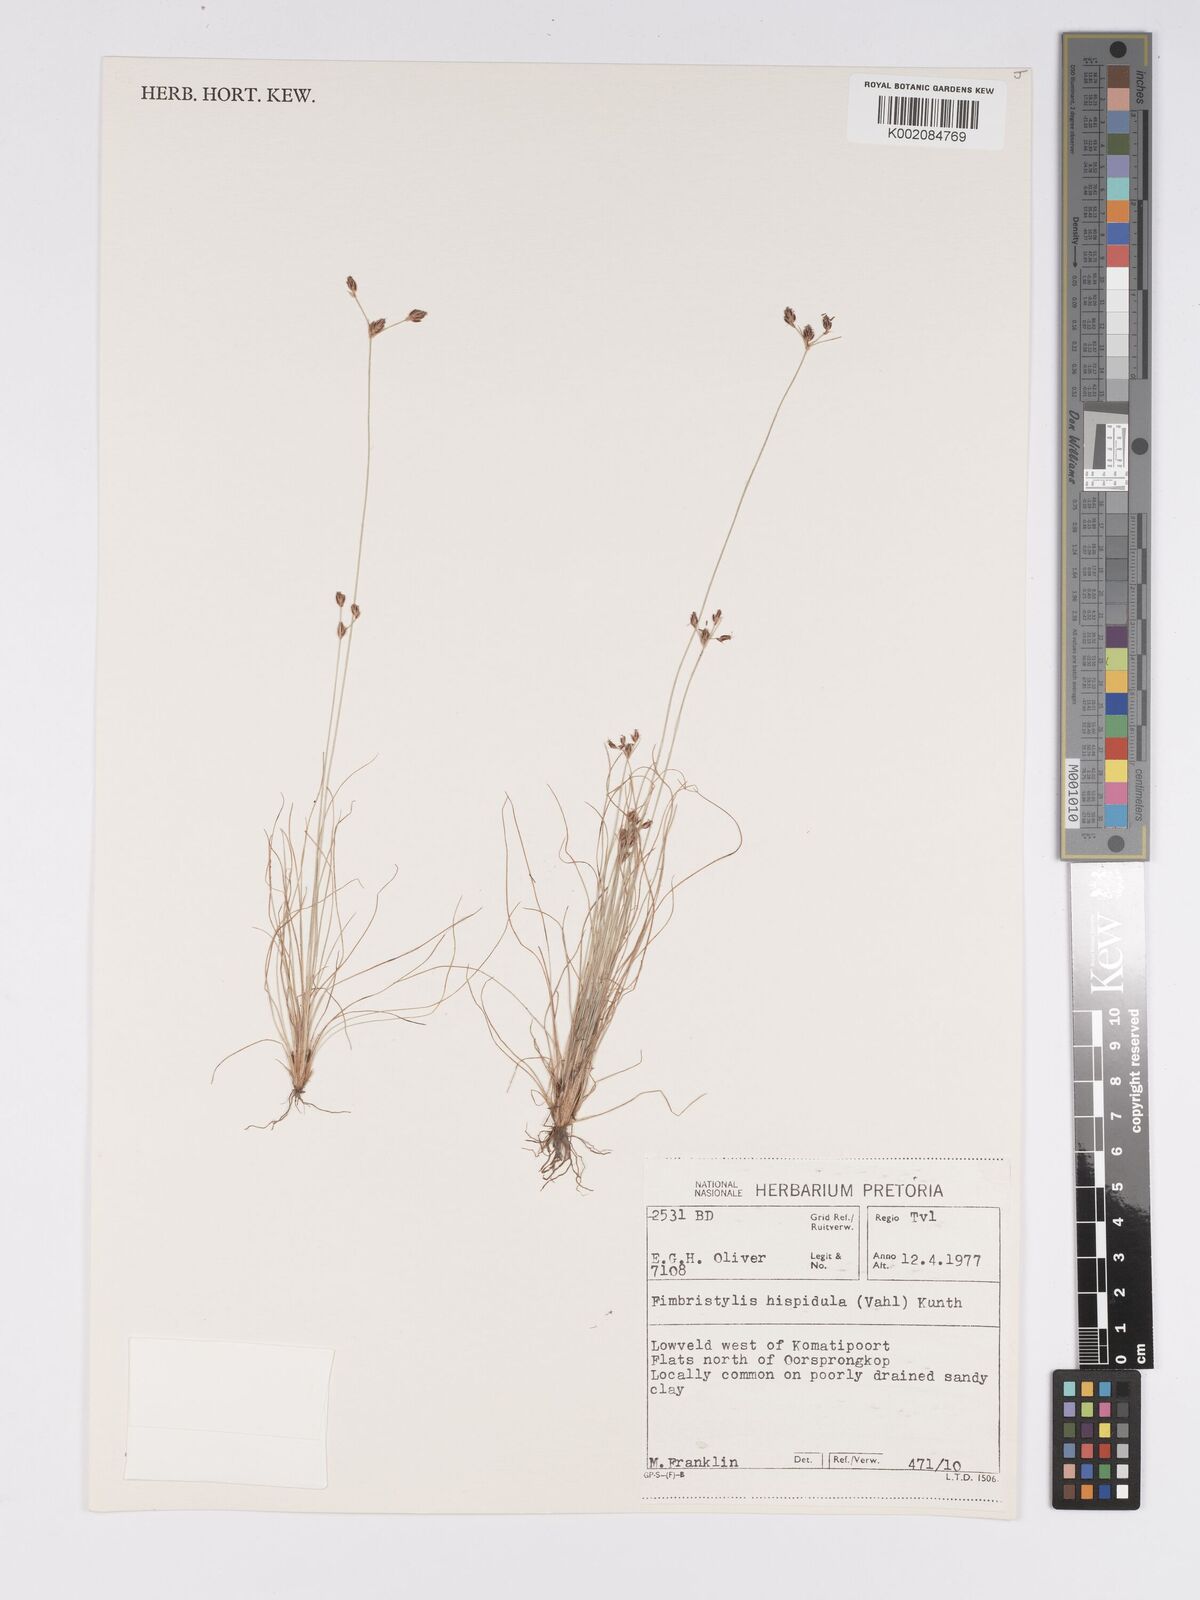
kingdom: Plantae
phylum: Tracheophyta
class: Liliopsida
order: Poales
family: Cyperaceae
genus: Bulbostylis
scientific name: Bulbostylis hispidula
